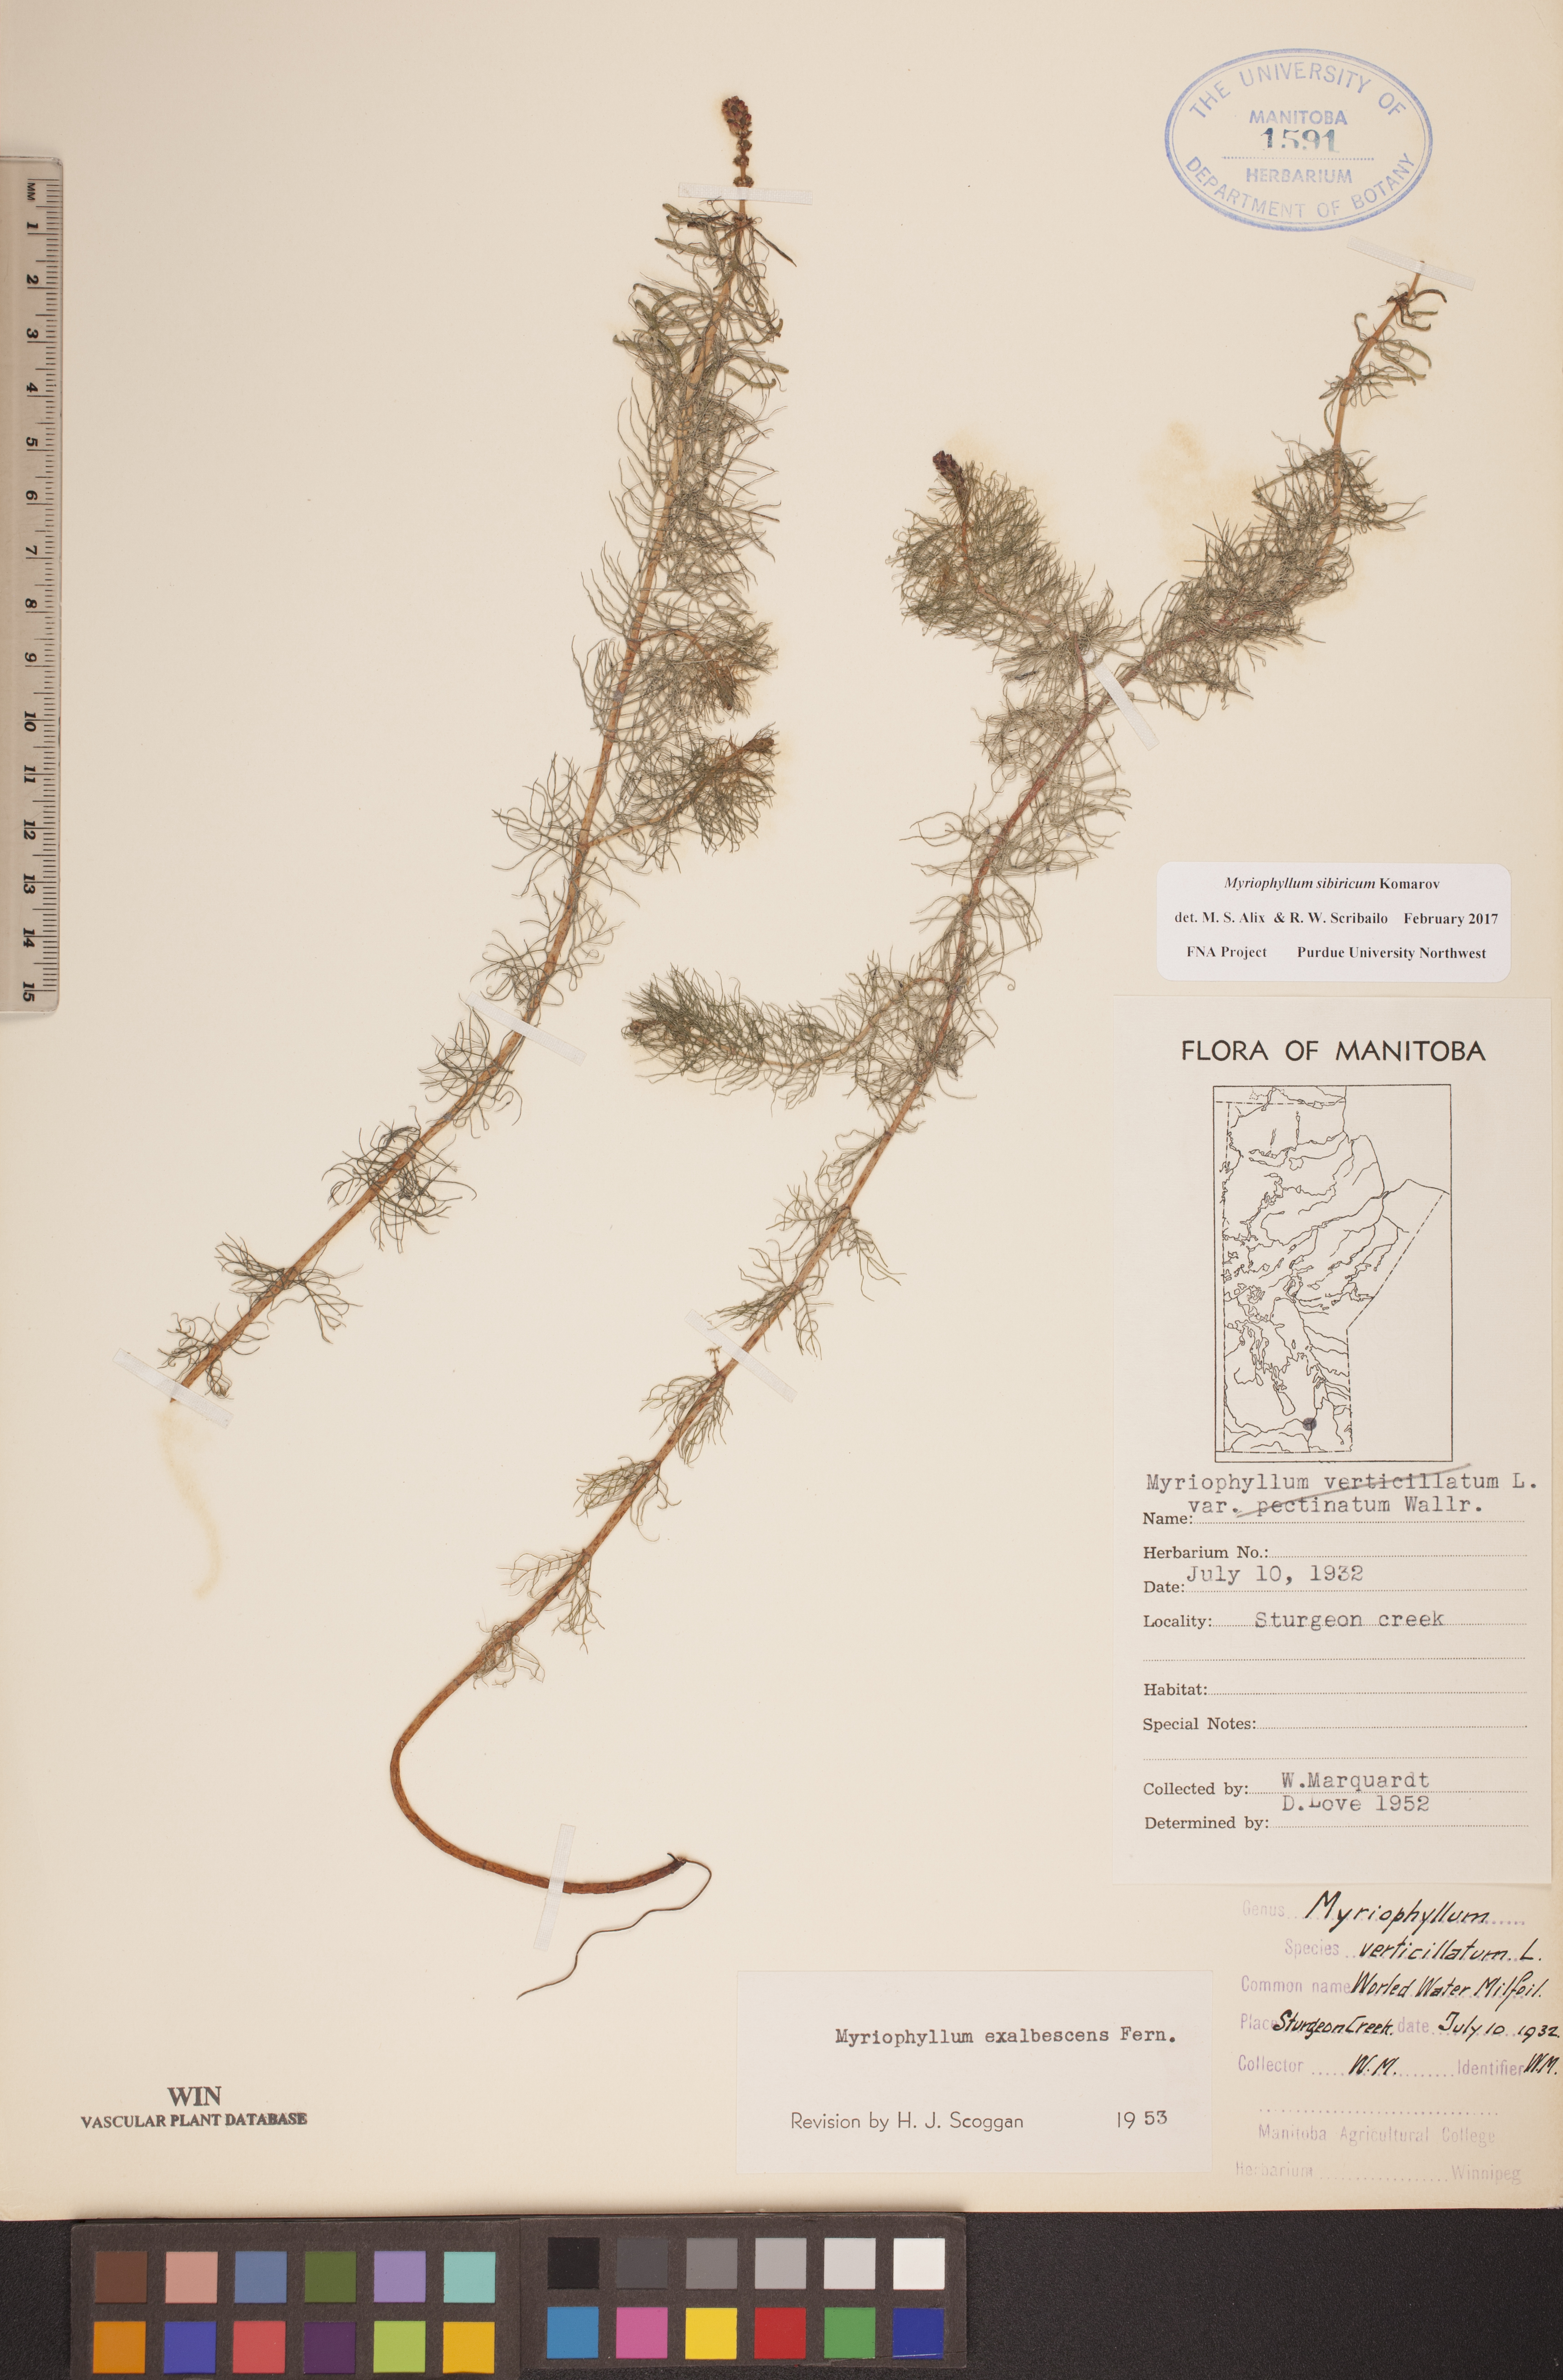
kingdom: Plantae
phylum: Tracheophyta
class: Magnoliopsida
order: Saxifragales
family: Haloragaceae
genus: Myriophyllum
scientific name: Myriophyllum sibiricum
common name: Siberian water-milfoil
